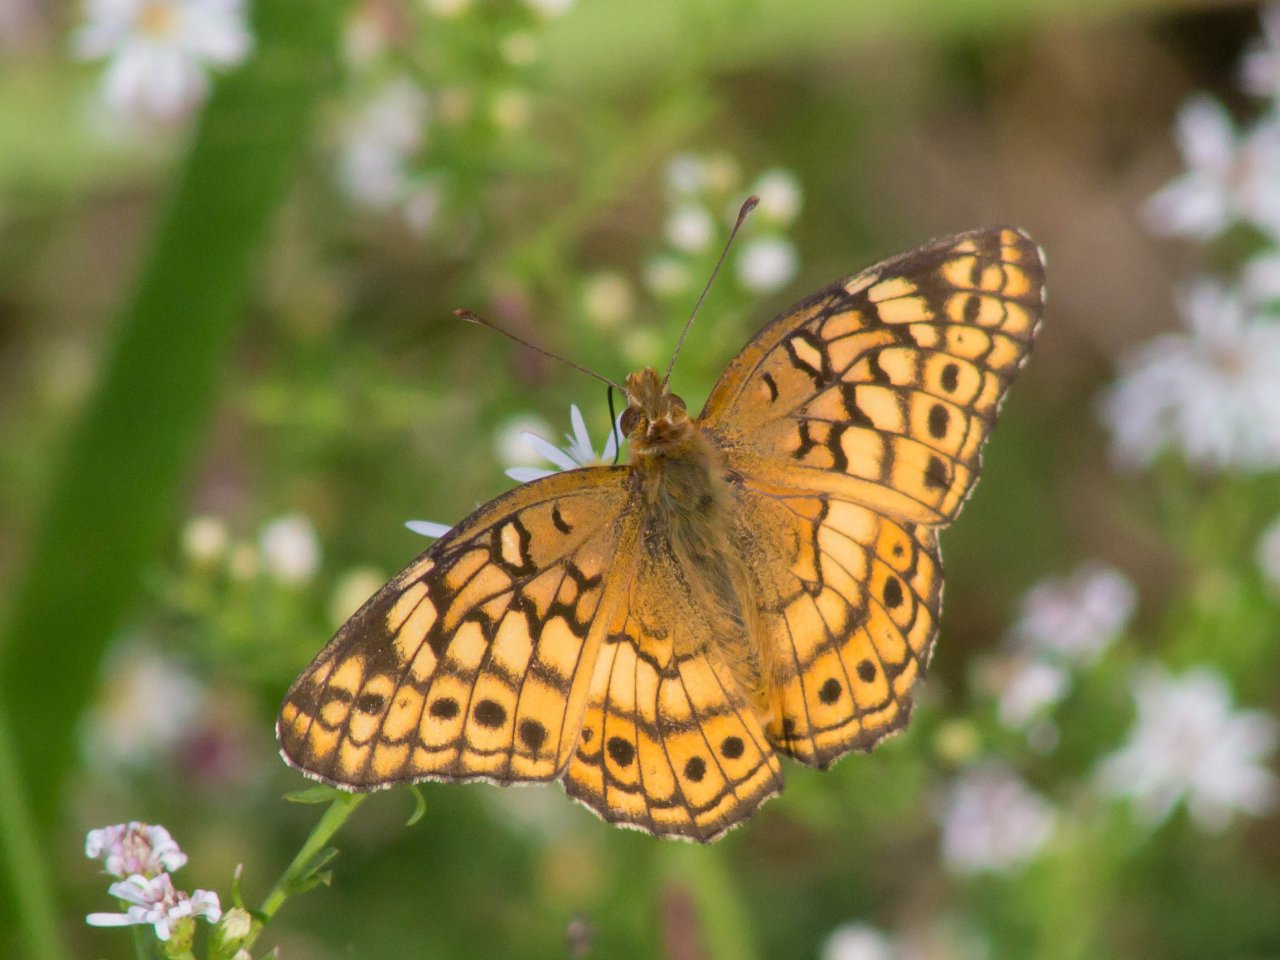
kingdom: Animalia
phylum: Arthropoda
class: Insecta
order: Lepidoptera
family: Nymphalidae
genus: Euptoieta
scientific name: Euptoieta claudia
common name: Variegated Fritillary
